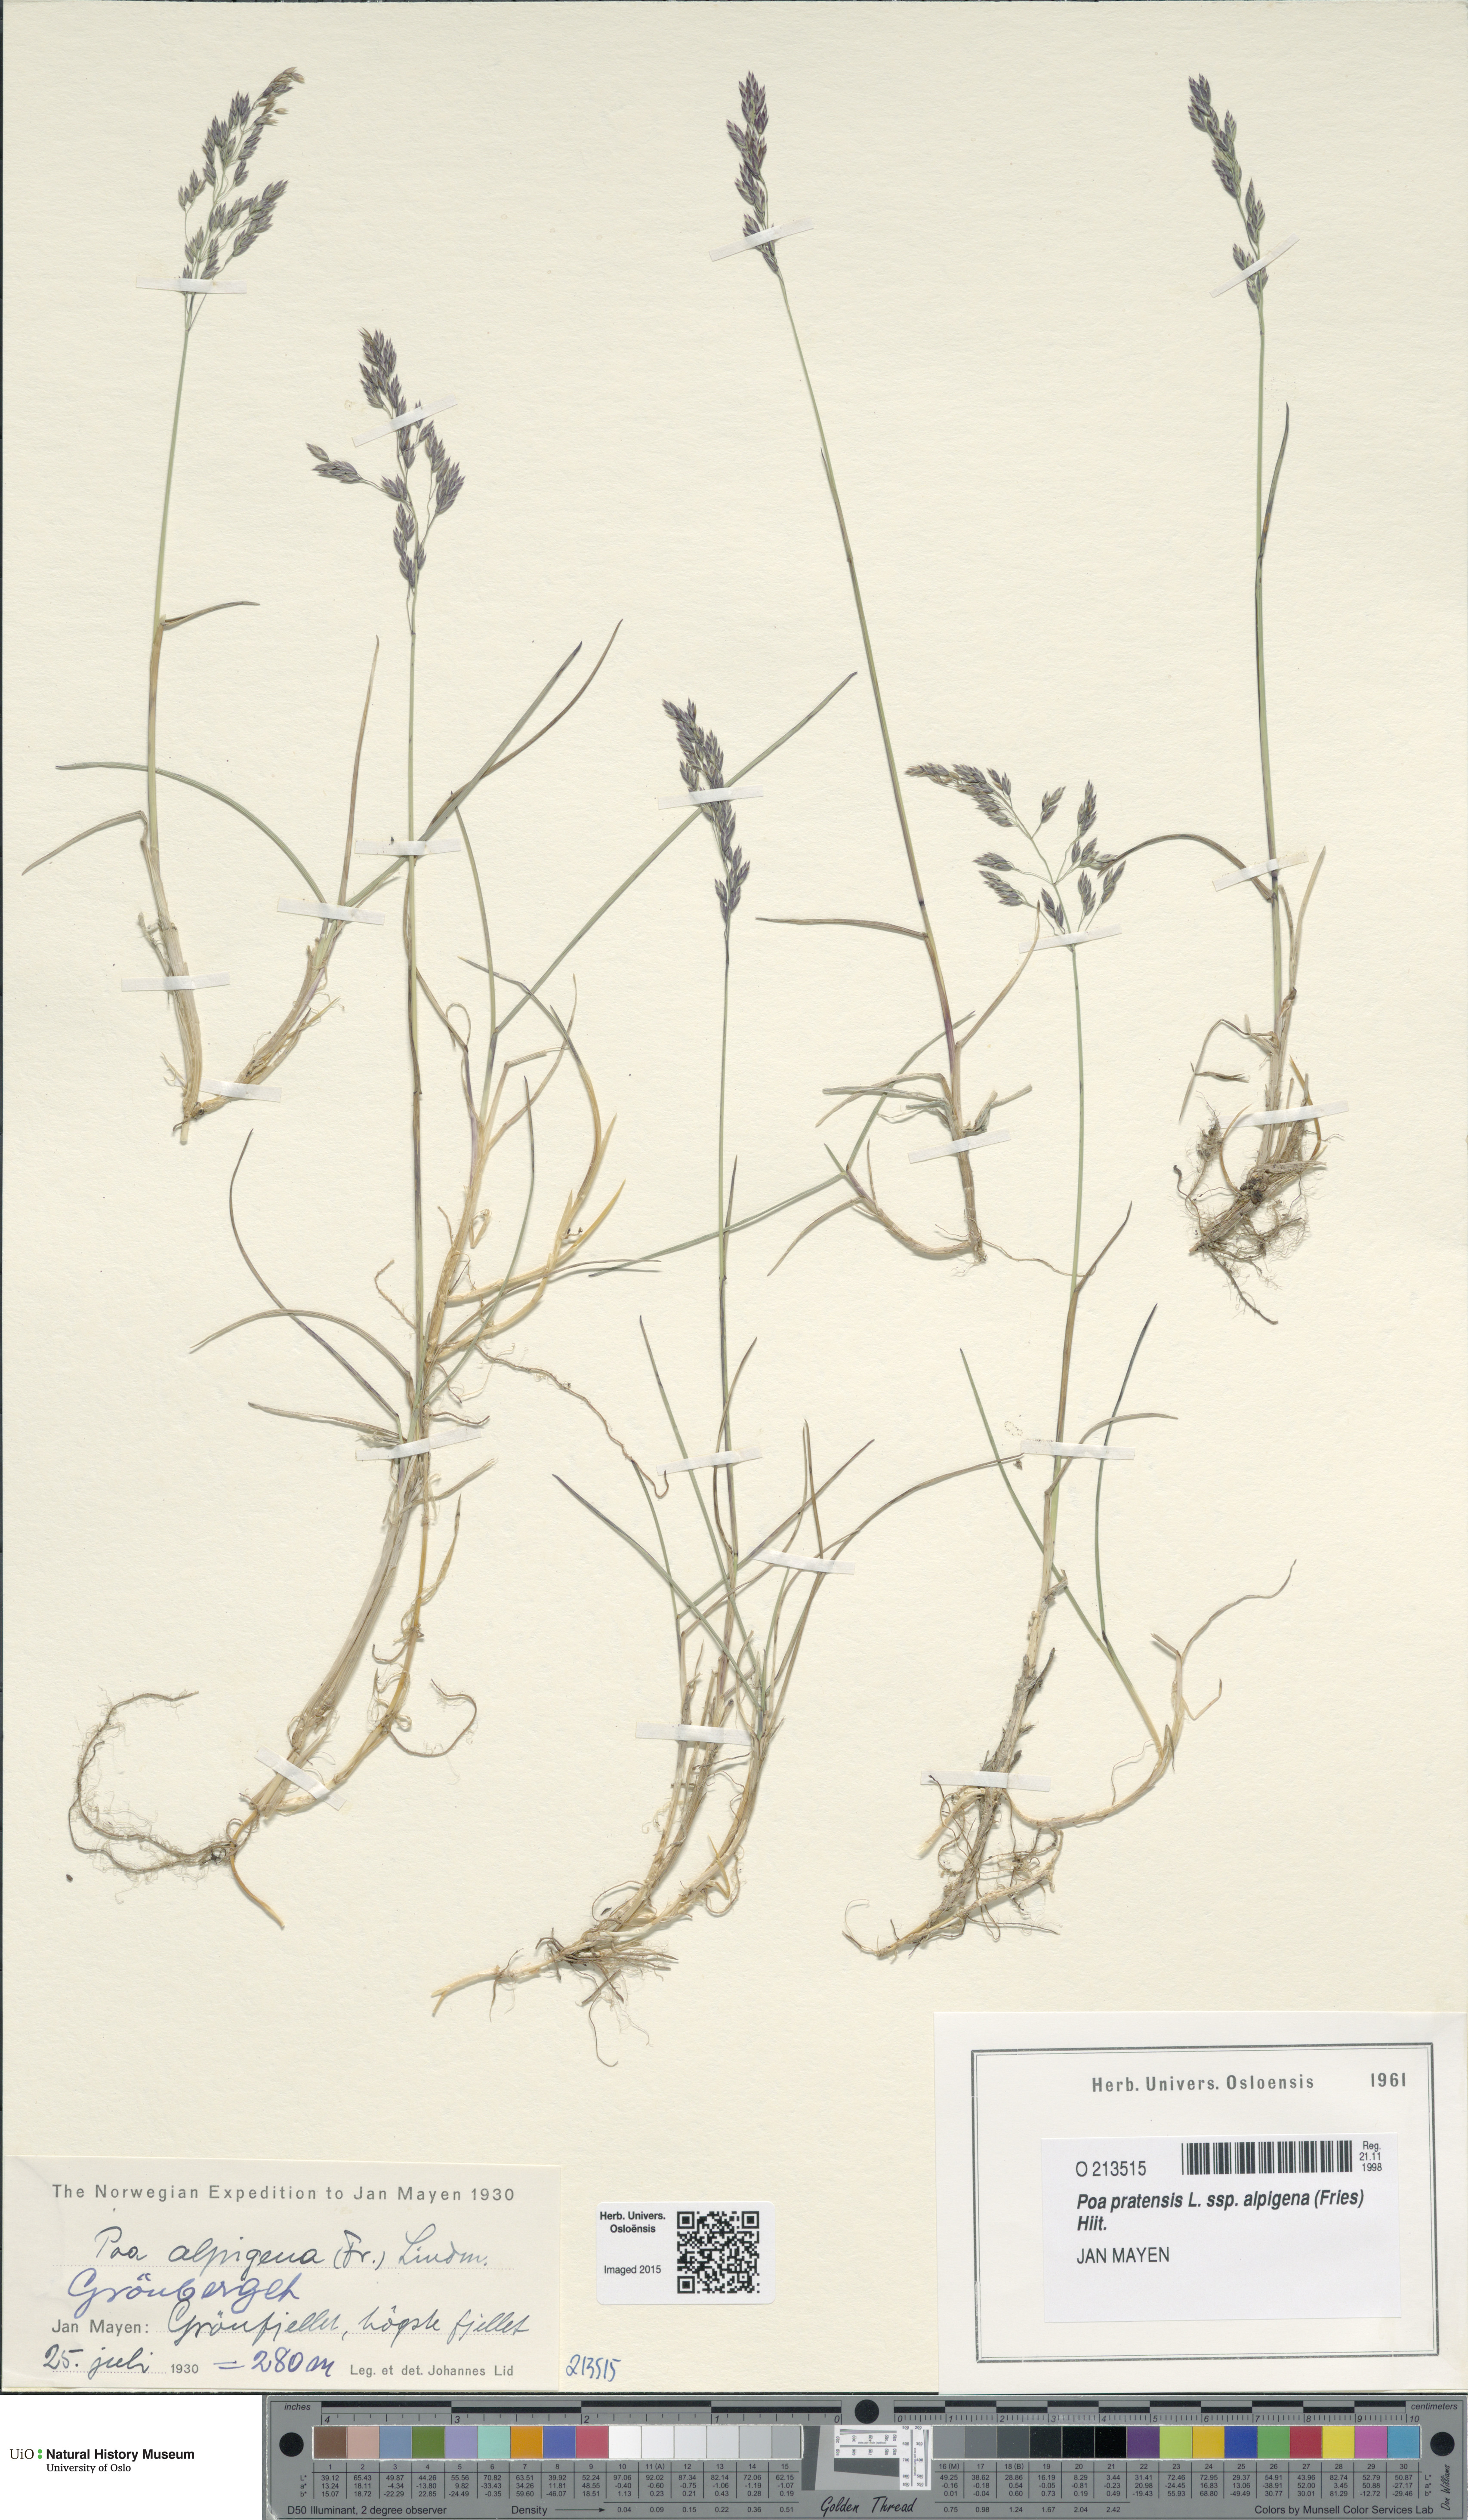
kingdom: Plantae
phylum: Tracheophyta
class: Liliopsida
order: Poales
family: Poaceae
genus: Poa
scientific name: Poa alpigena
